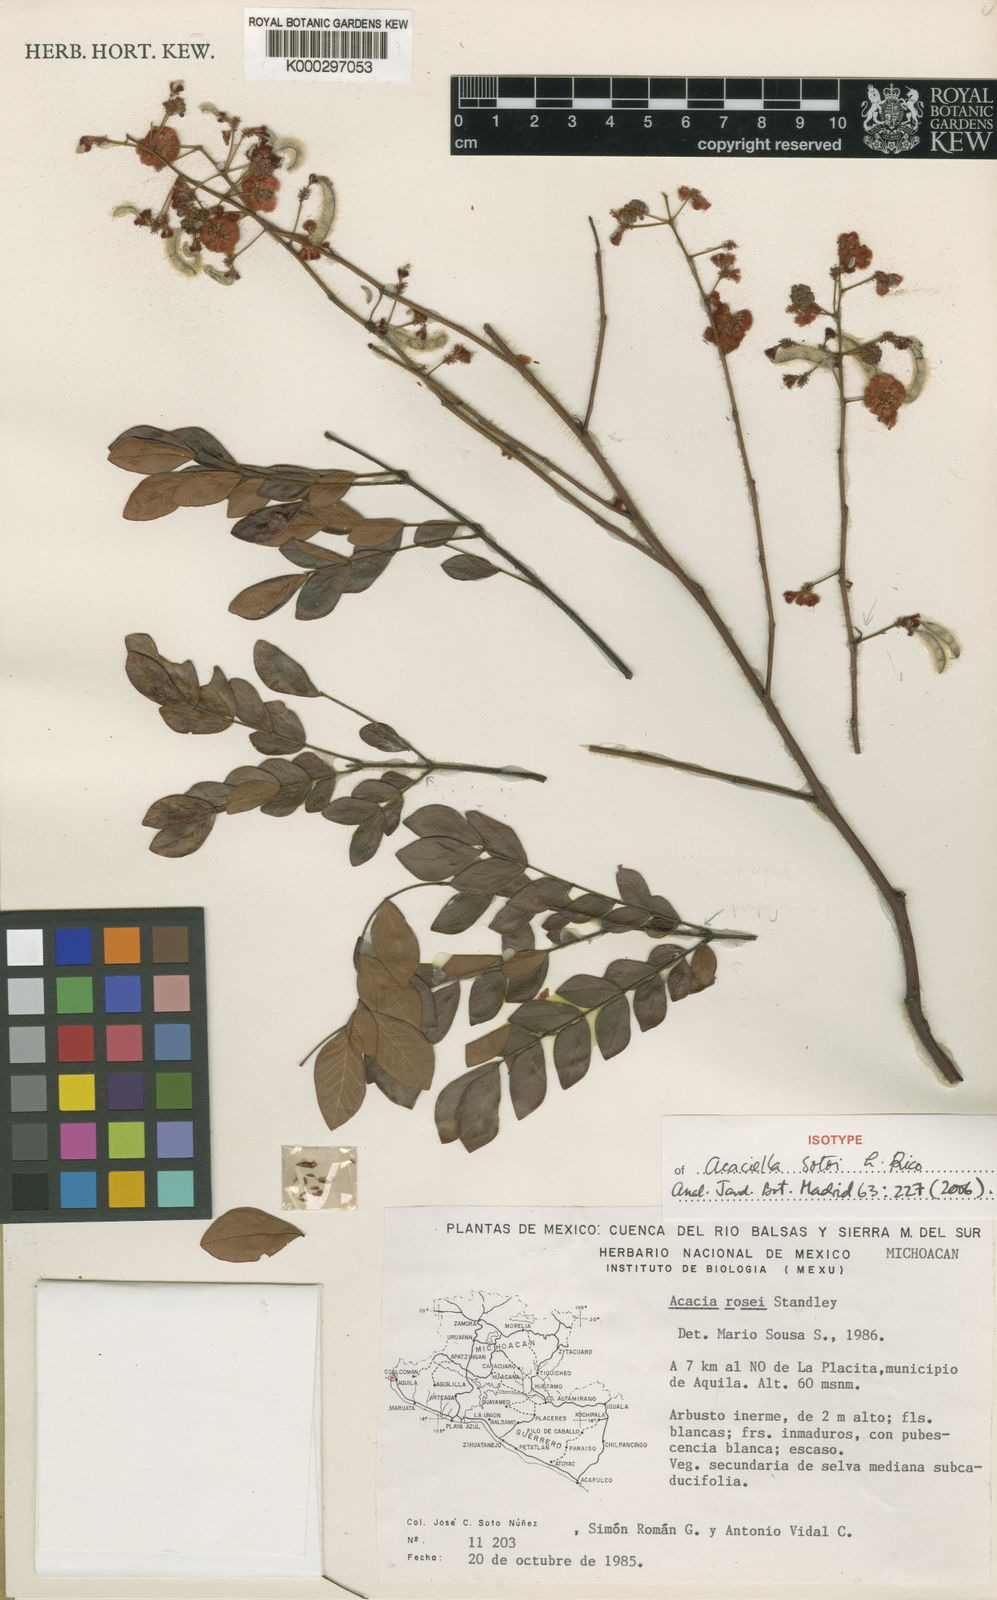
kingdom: Plantae
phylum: Tracheophyta
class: Magnoliopsida
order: Fabales
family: Fabaceae
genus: Acaciella
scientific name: Acaciella sotoi
